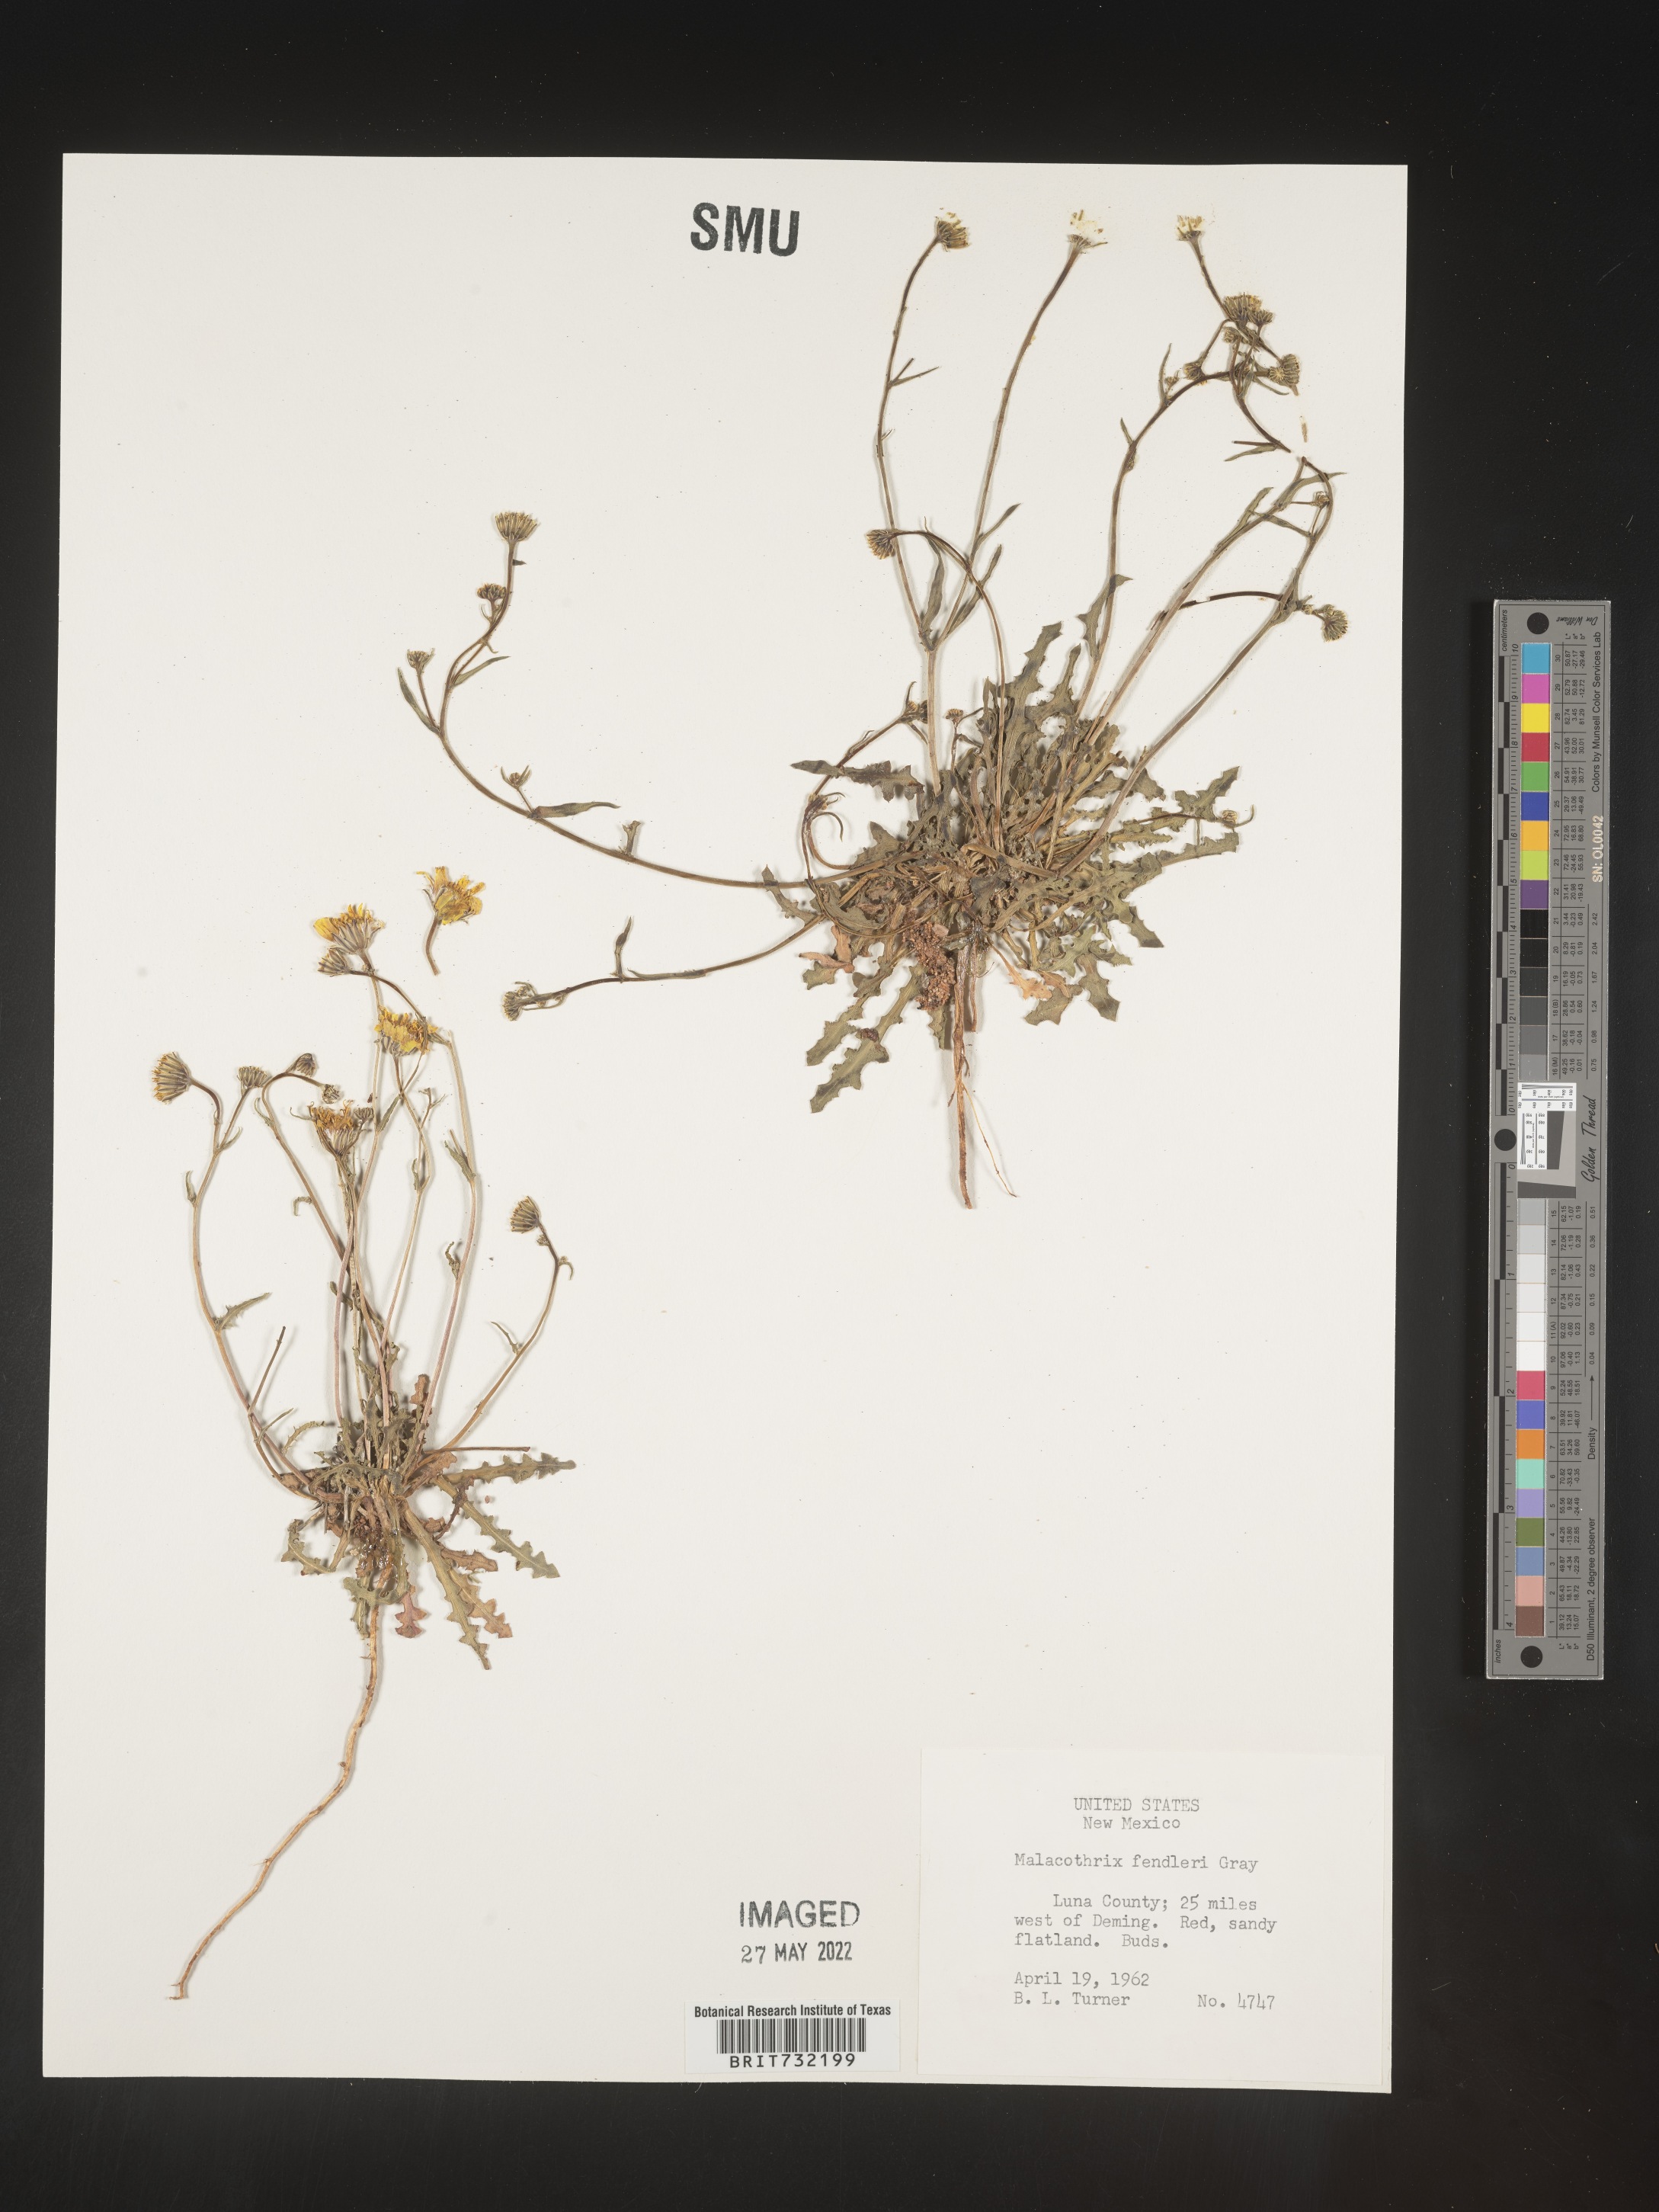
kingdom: Plantae
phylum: Tracheophyta
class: Magnoliopsida
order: Asterales
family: Asteraceae
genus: Malacothrix
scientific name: Malacothrix
